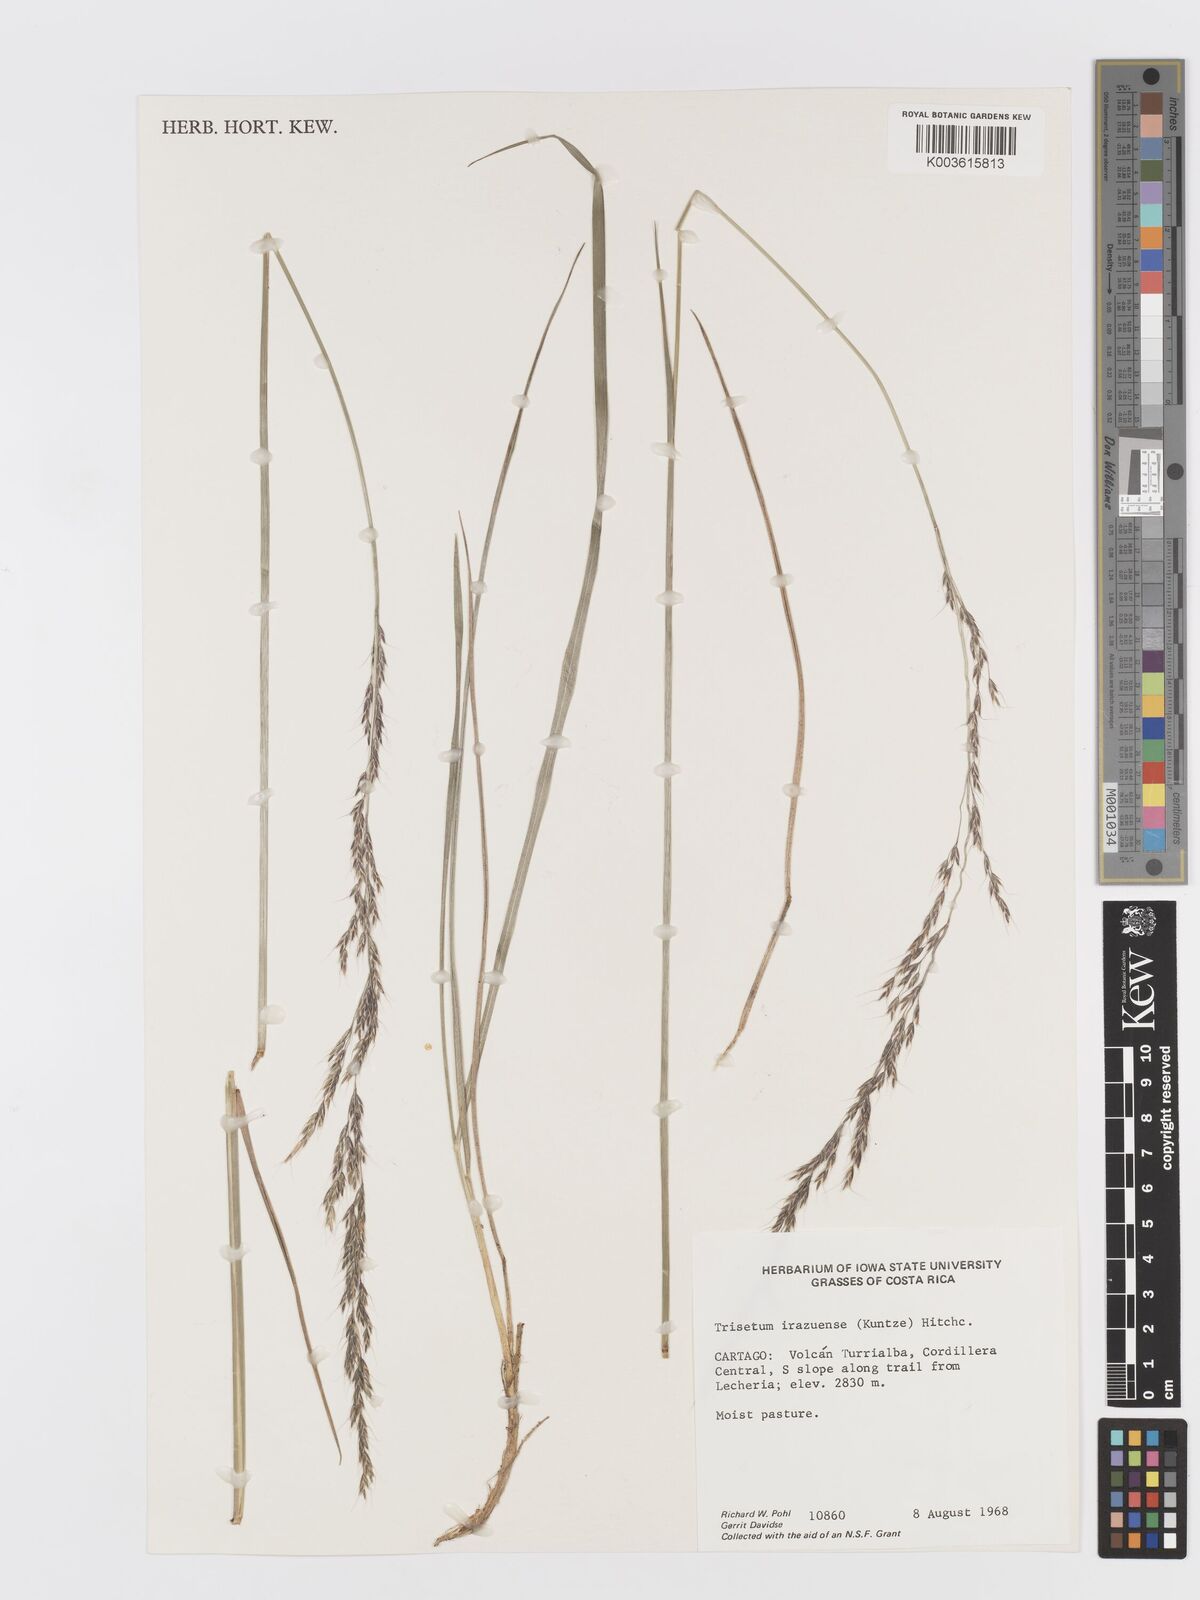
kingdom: Plantae
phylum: Tracheophyta
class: Liliopsida
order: Poales
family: Poaceae
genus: Peyritschia
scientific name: Peyritschia irazuensis
